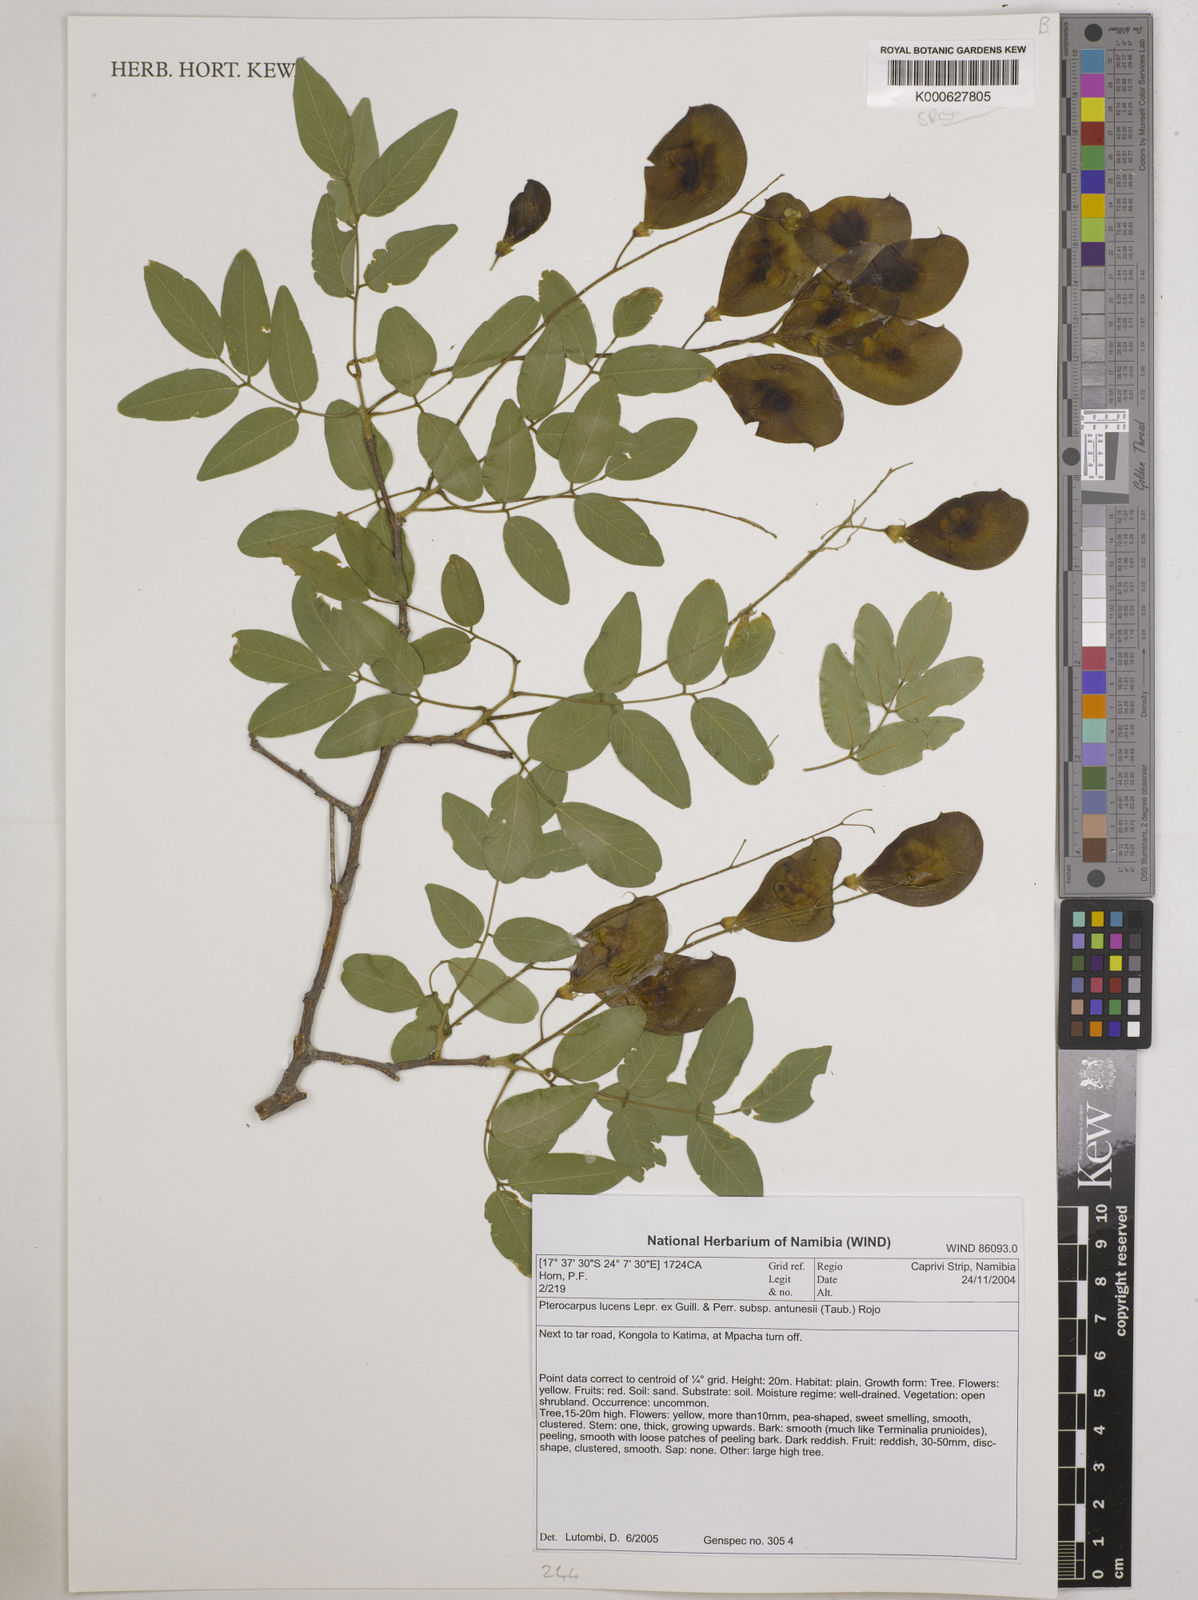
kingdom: Plantae
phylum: Tracheophyta
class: Magnoliopsida
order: Fabales
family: Fabaceae
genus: Pterocarpus
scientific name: Pterocarpus lucens
